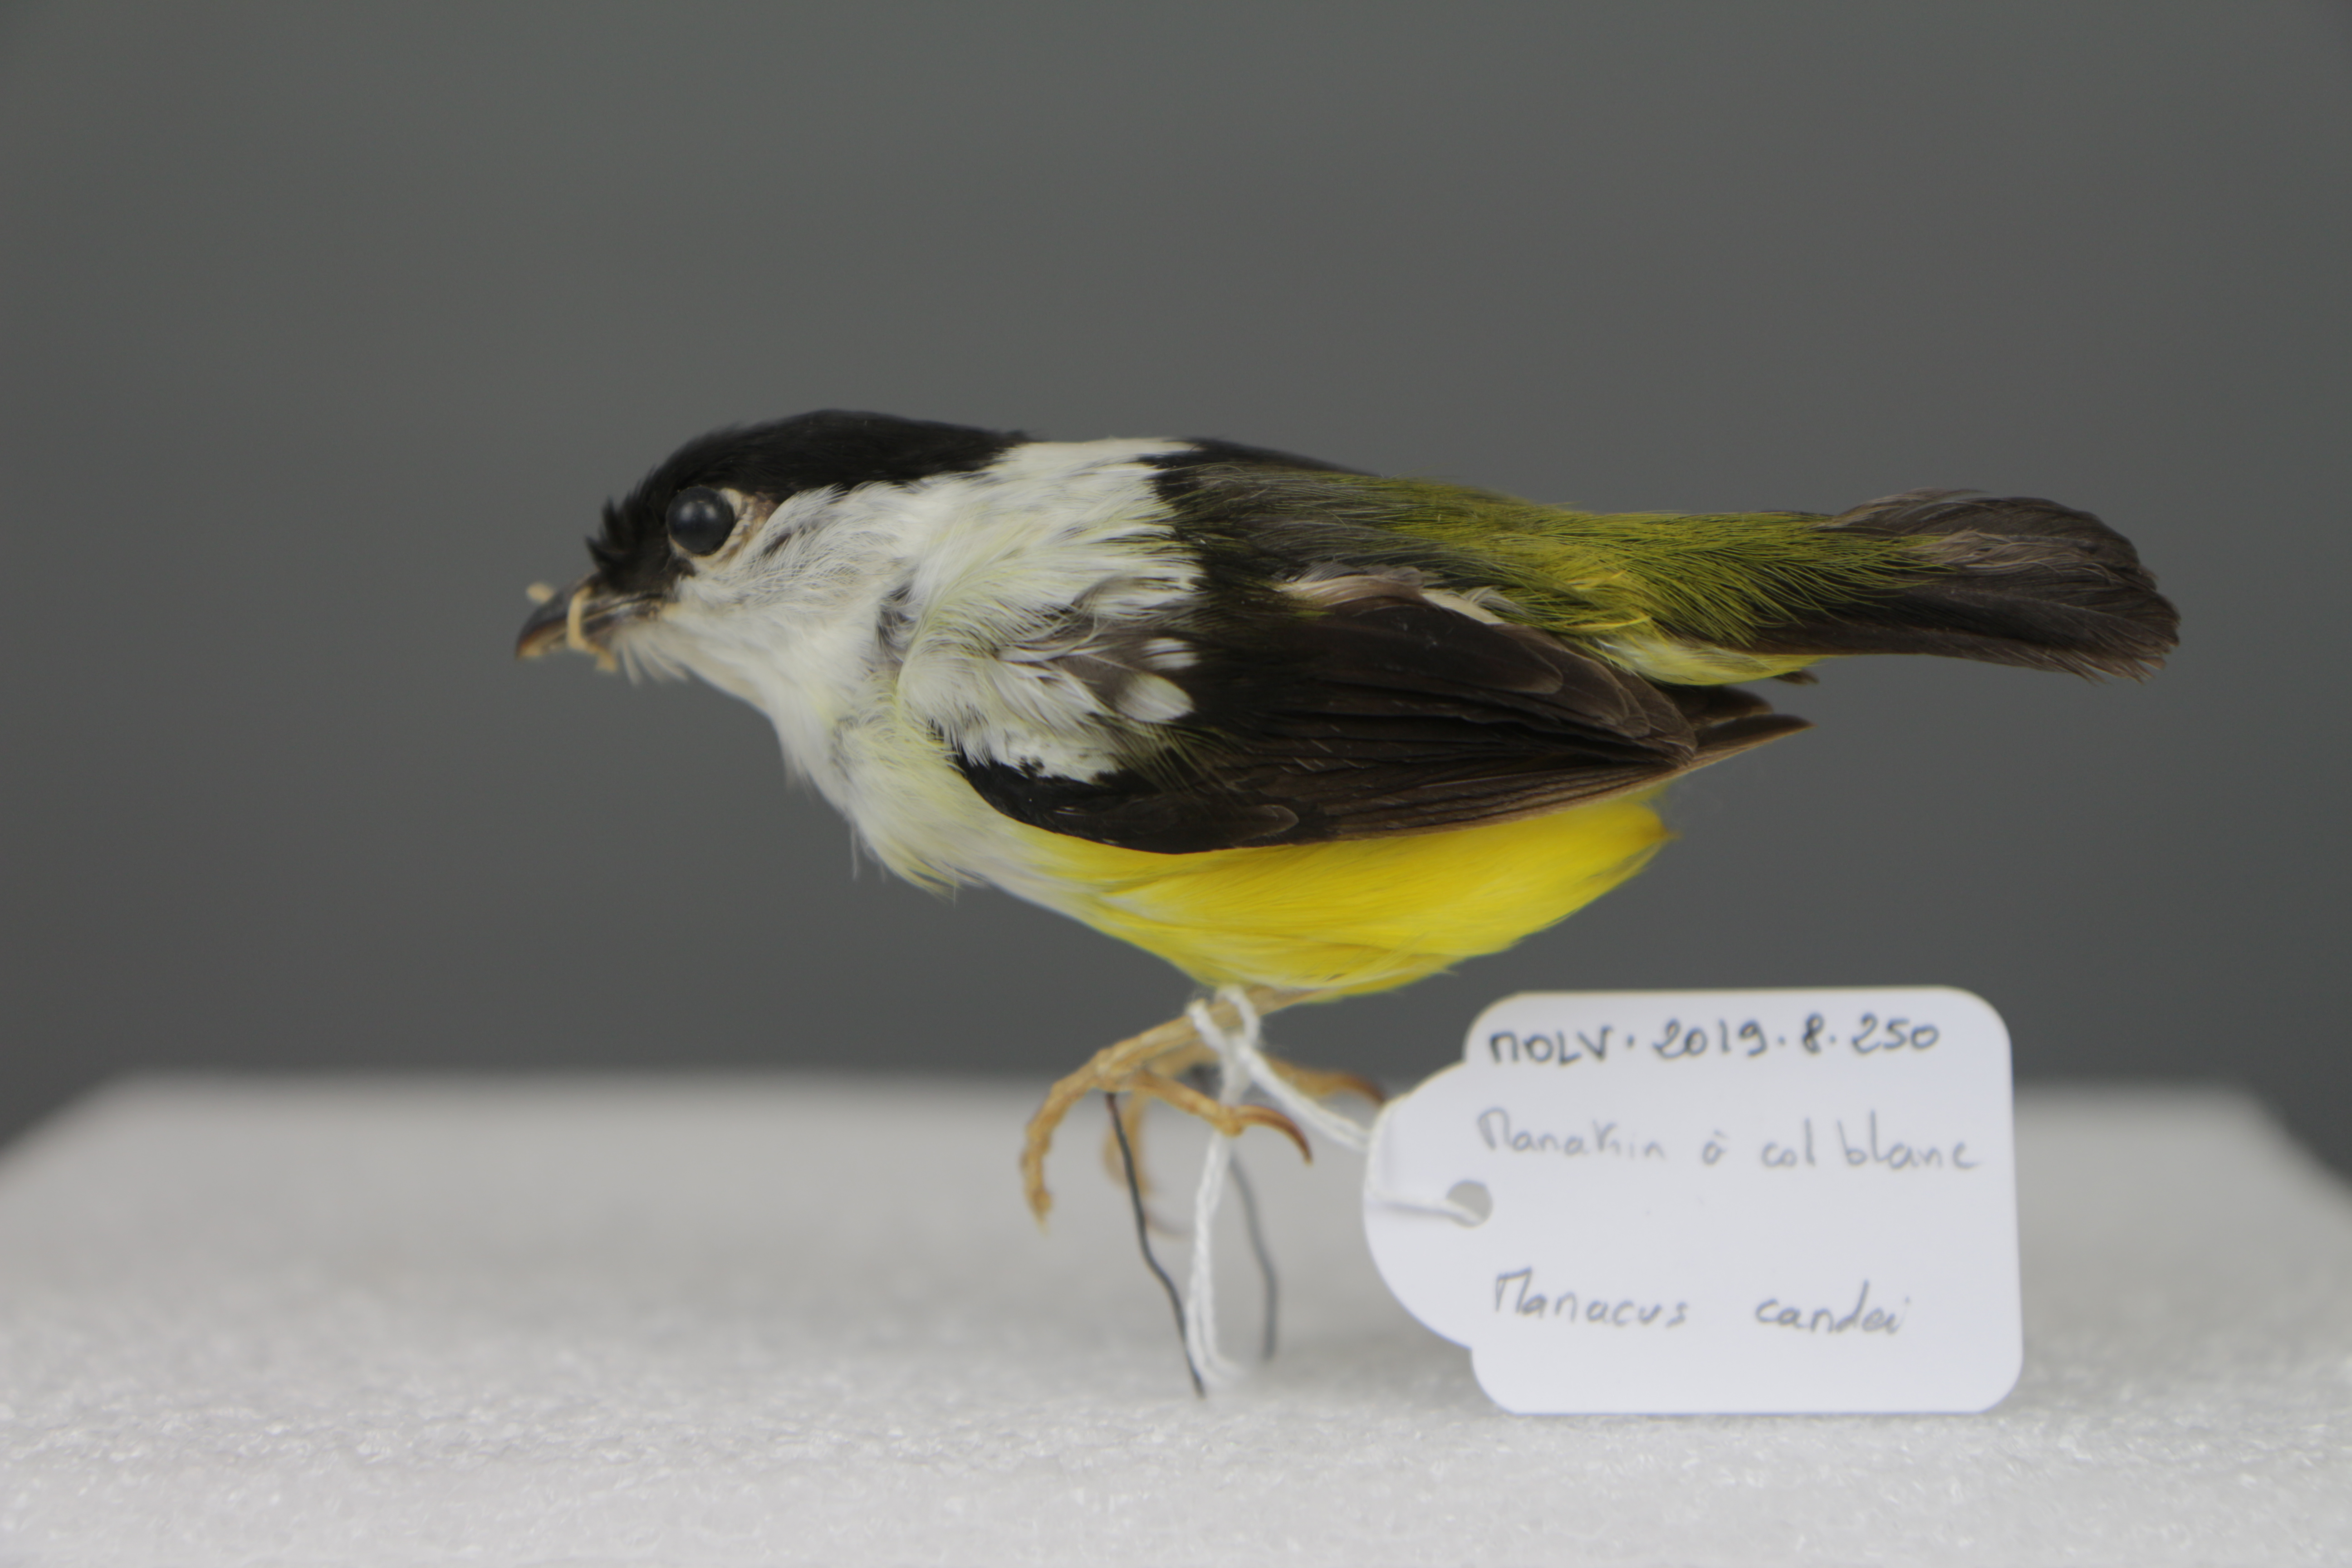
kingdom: Animalia
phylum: Chordata
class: Aves
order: Passeriformes
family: Pipridae
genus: Manacus
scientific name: Manacus candei
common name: White-collared manakin
